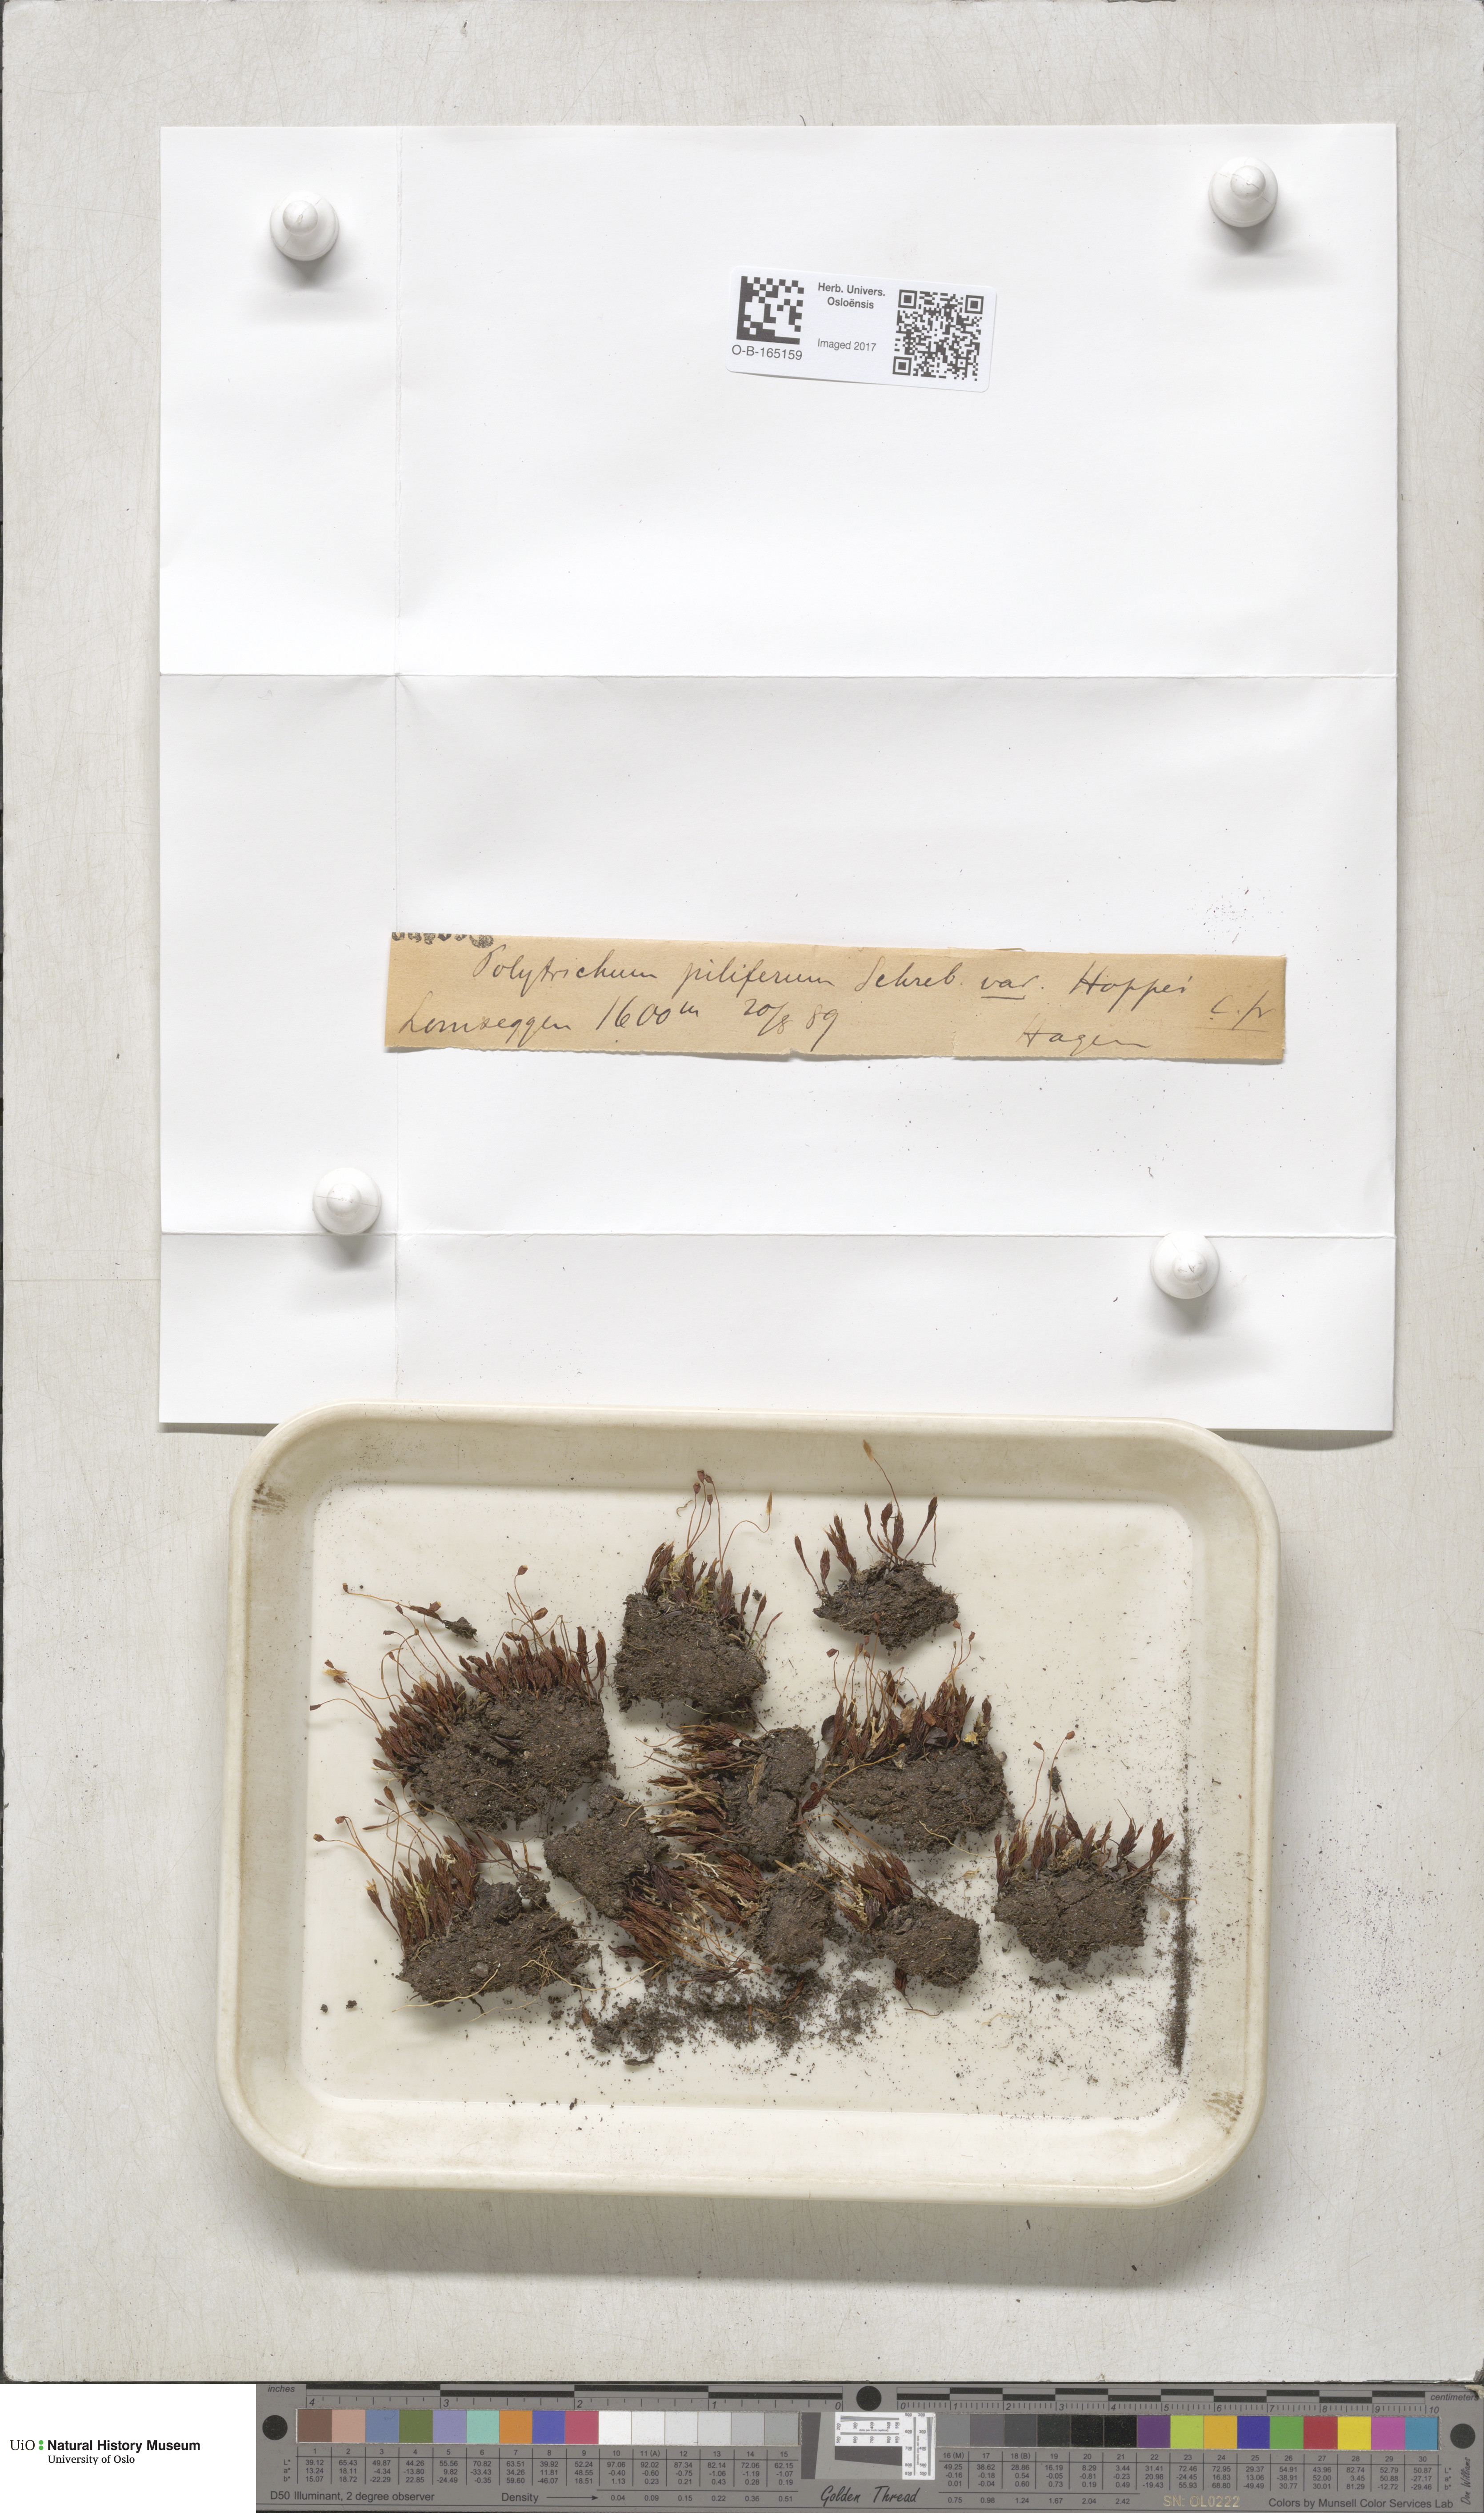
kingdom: Plantae
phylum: Bryophyta
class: Polytrichopsida
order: Polytrichales
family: Polytrichaceae
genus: Polytrichum
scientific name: Polytrichum piliferum
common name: Bristly haircap
